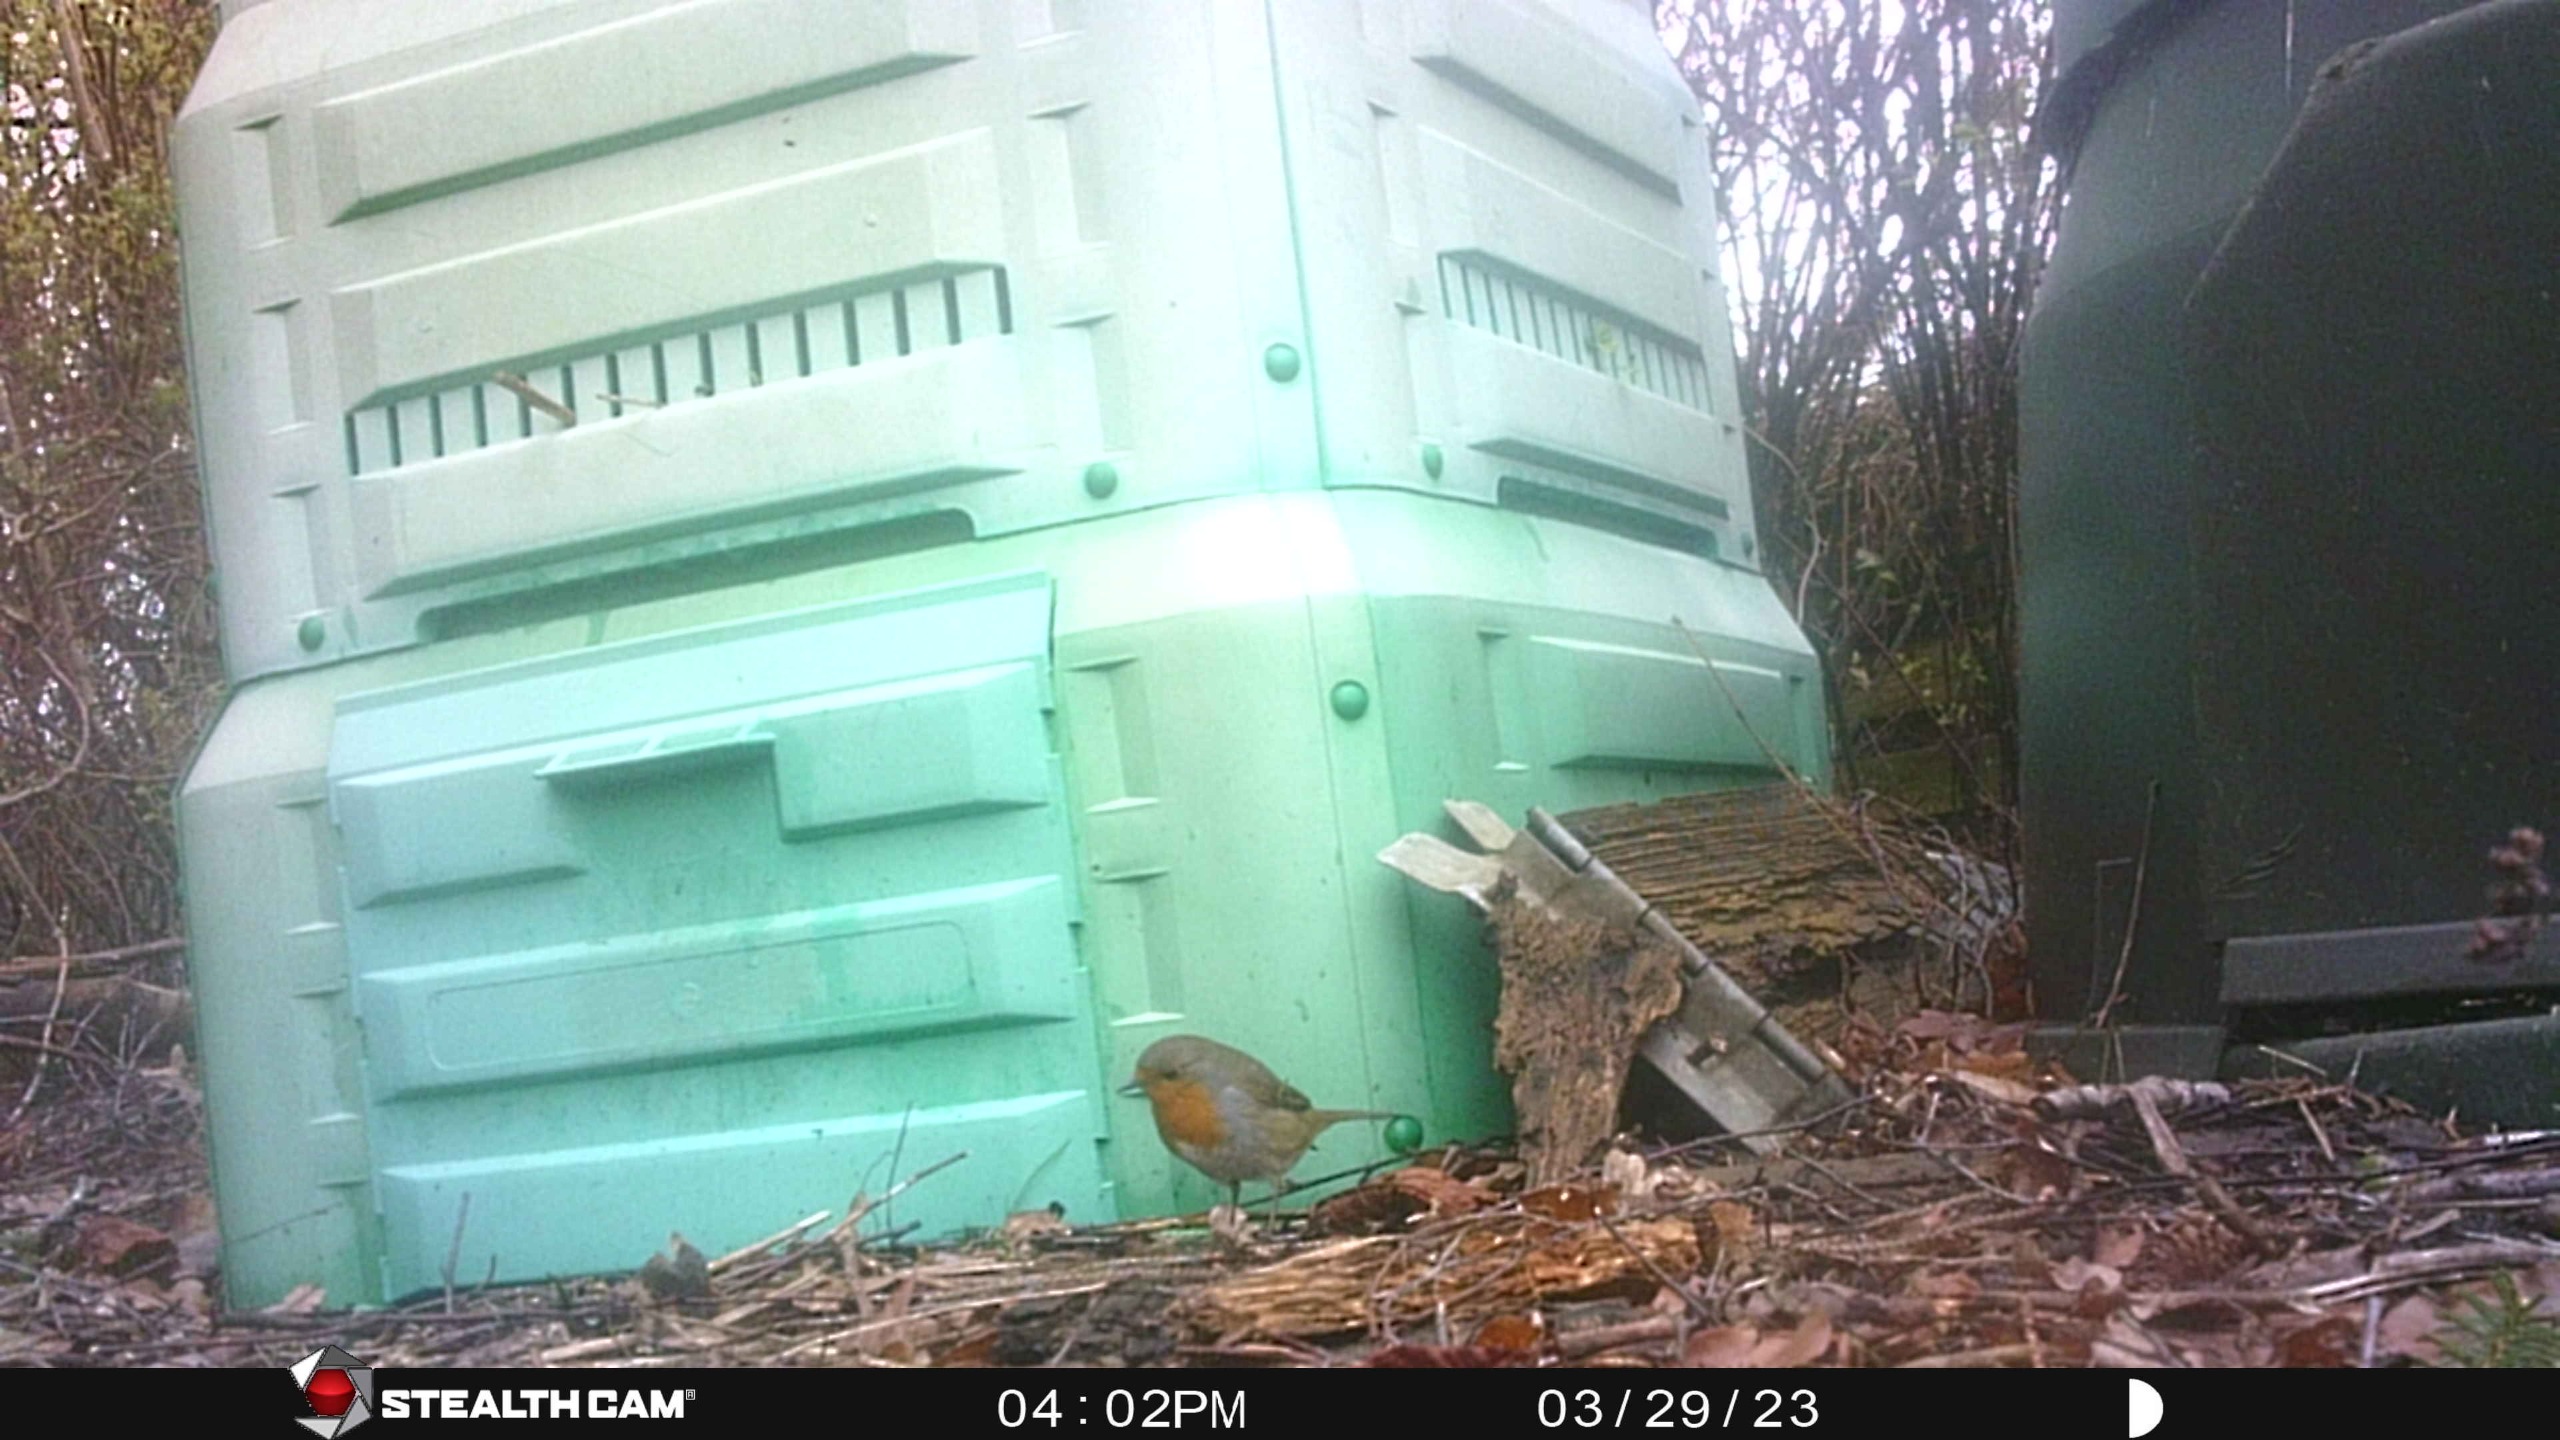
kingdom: Animalia
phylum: Chordata
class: Aves
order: Passeriformes
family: Muscicapidae
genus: Erithacus
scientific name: Erithacus rubecula
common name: Rødhals/rødkælk
